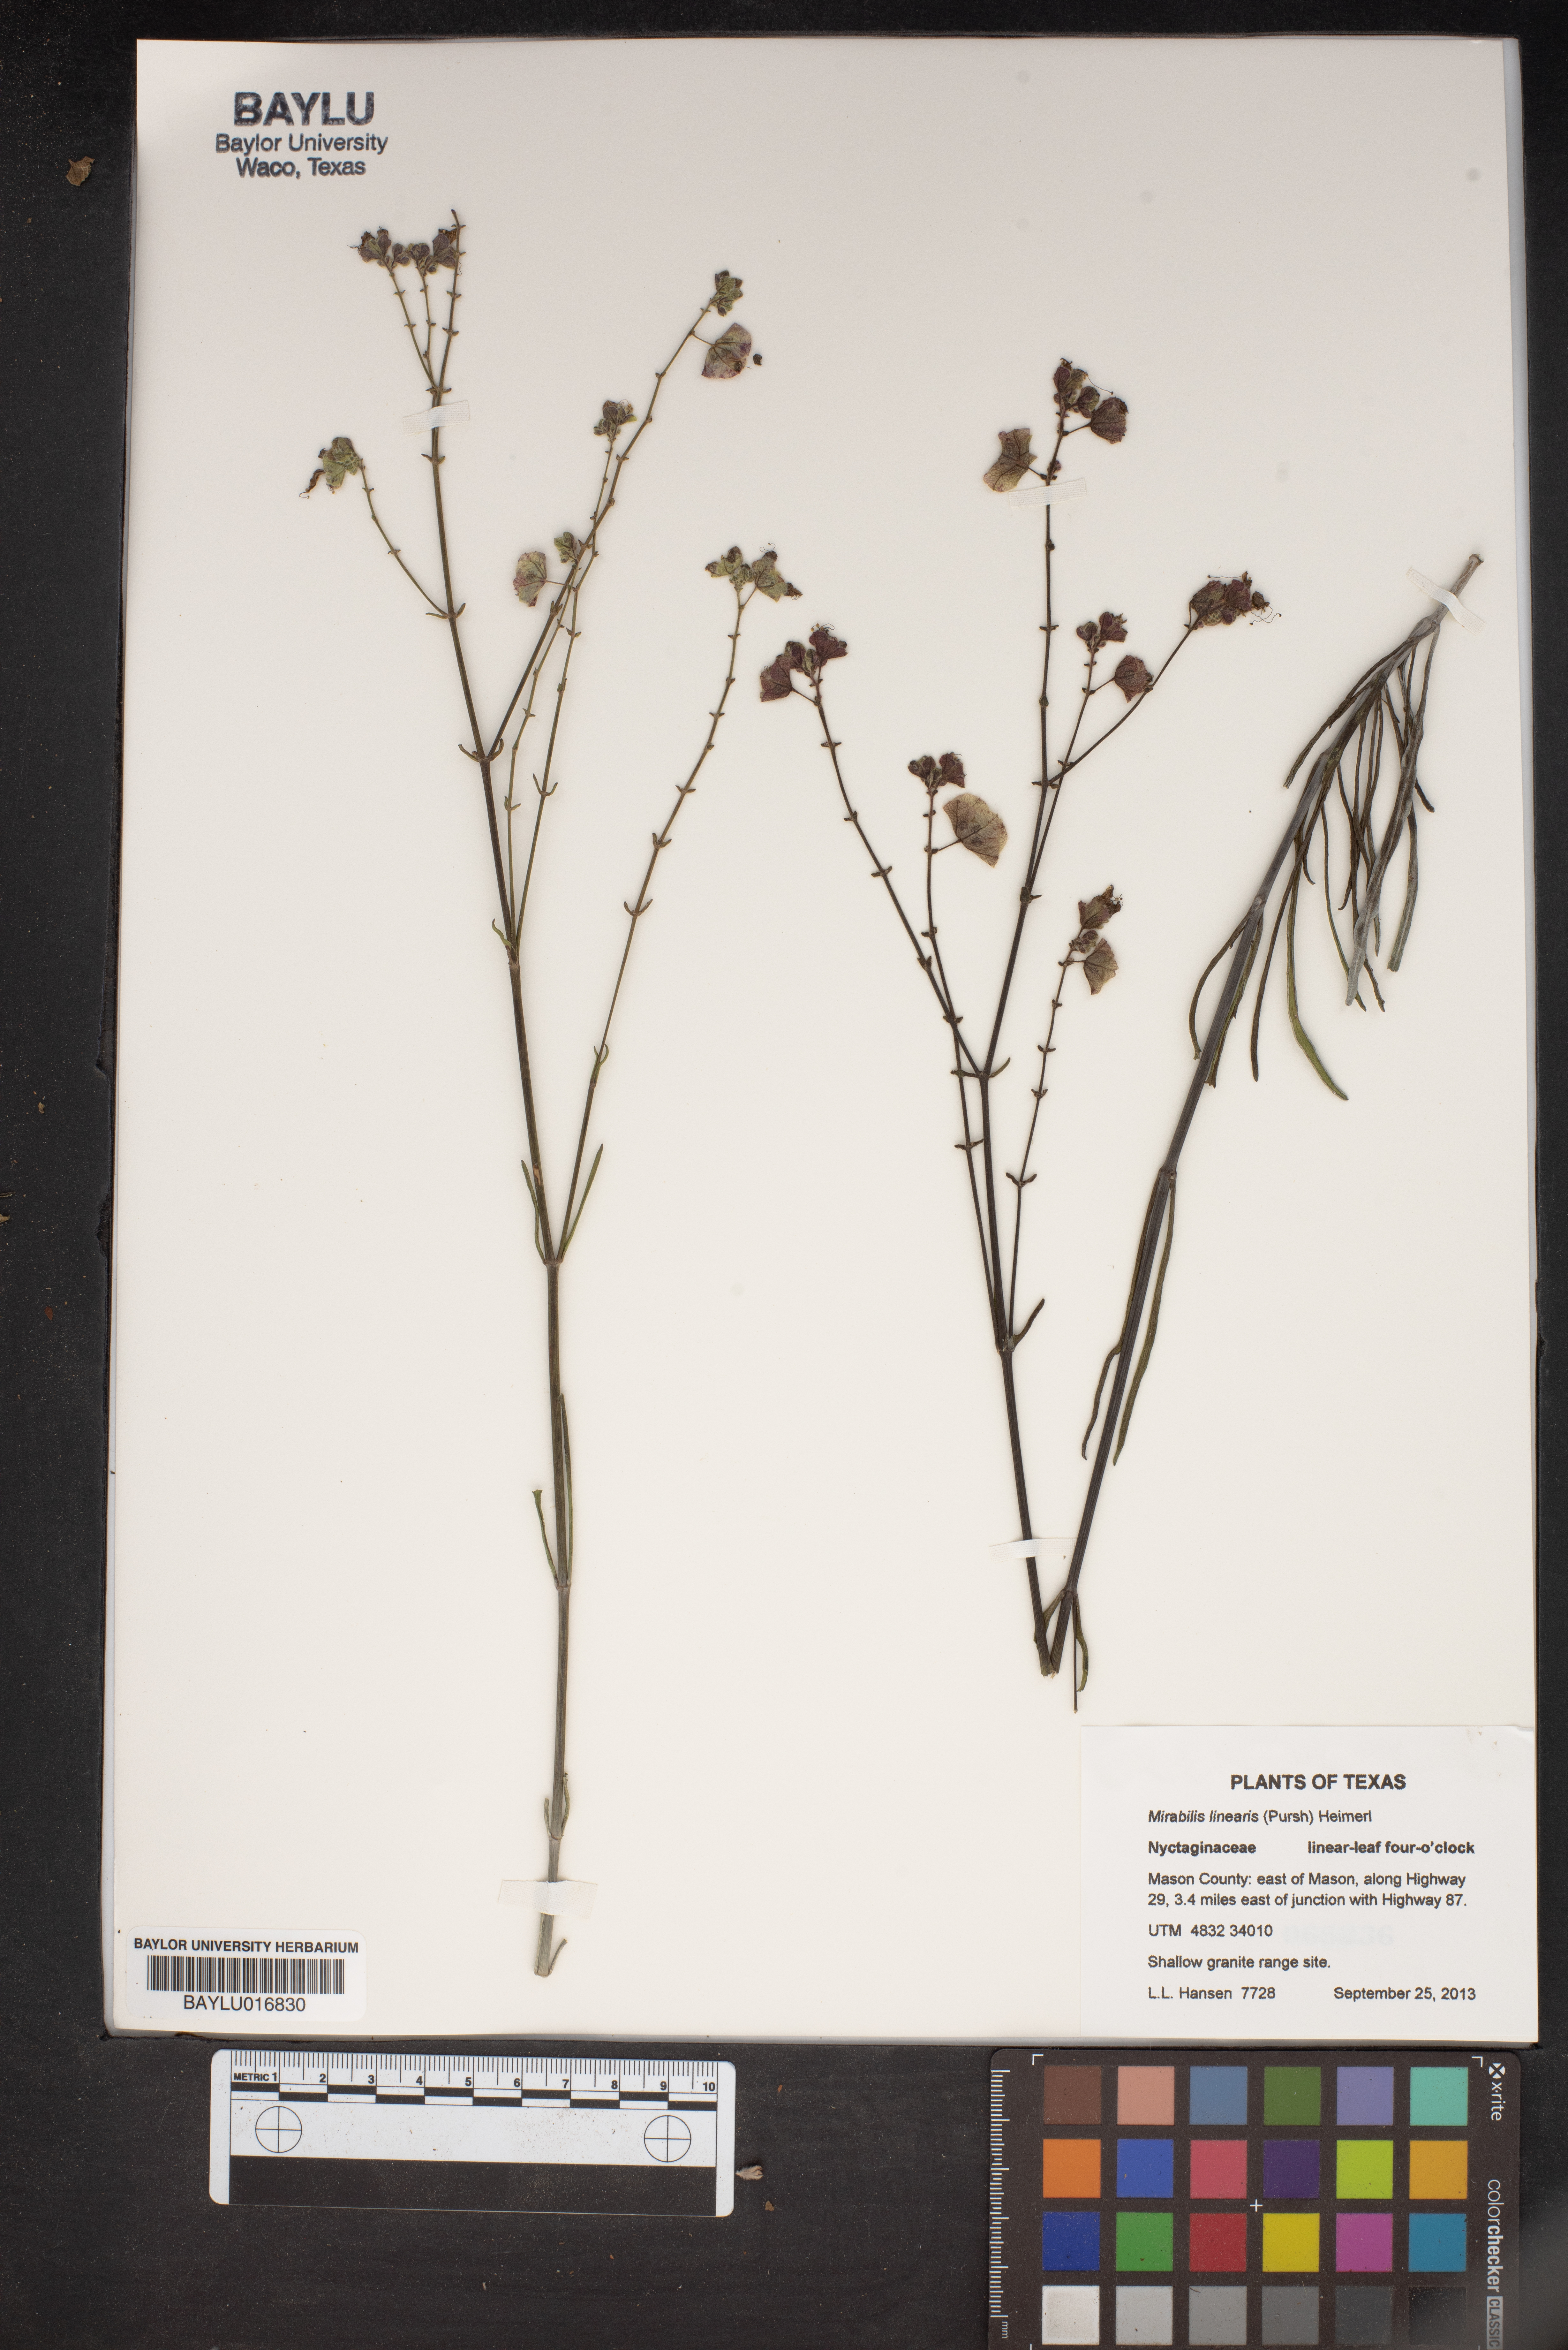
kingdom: Plantae
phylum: Tracheophyta
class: Magnoliopsida
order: Caryophyllales
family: Nyctaginaceae
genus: Mirabilis
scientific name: Mirabilis linearis
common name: Linear-leaved four-o'clock
